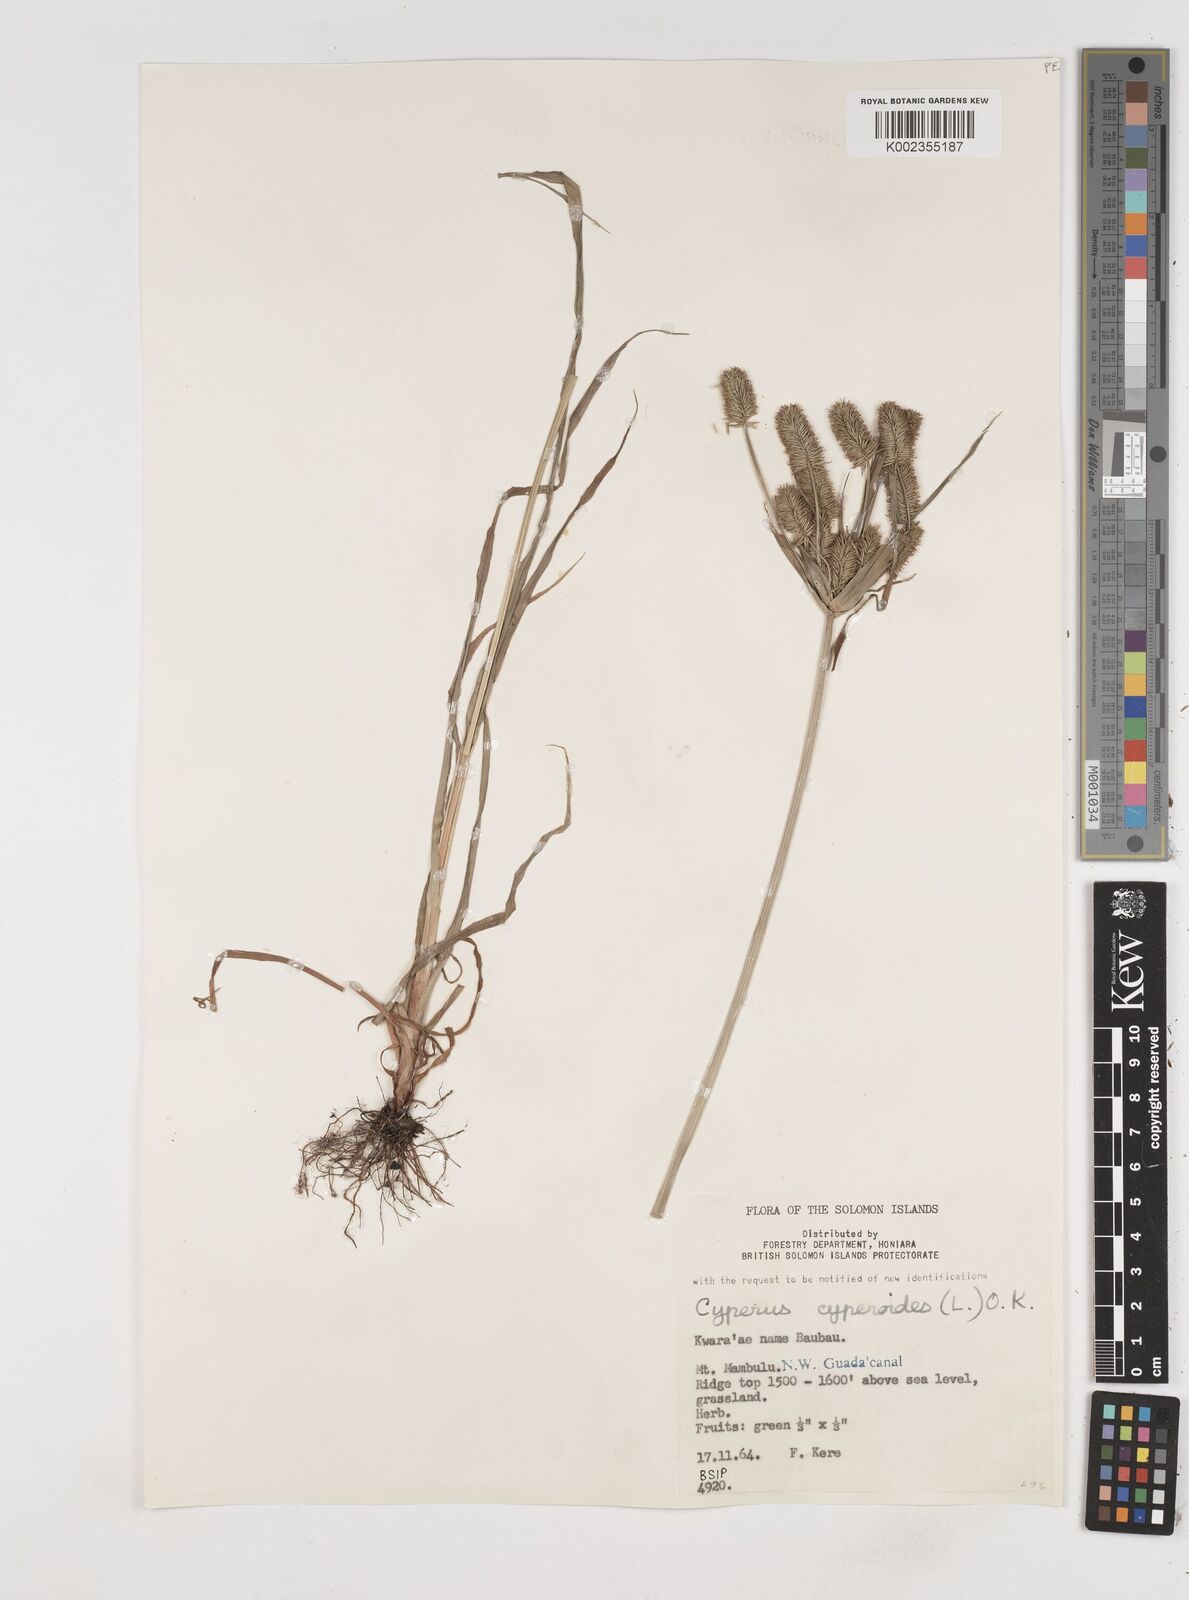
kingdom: Plantae
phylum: Tracheophyta
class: Liliopsida
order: Poales
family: Cyperaceae
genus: Cyperus
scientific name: Cyperus cyperoides
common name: Pacific island flat sedge
